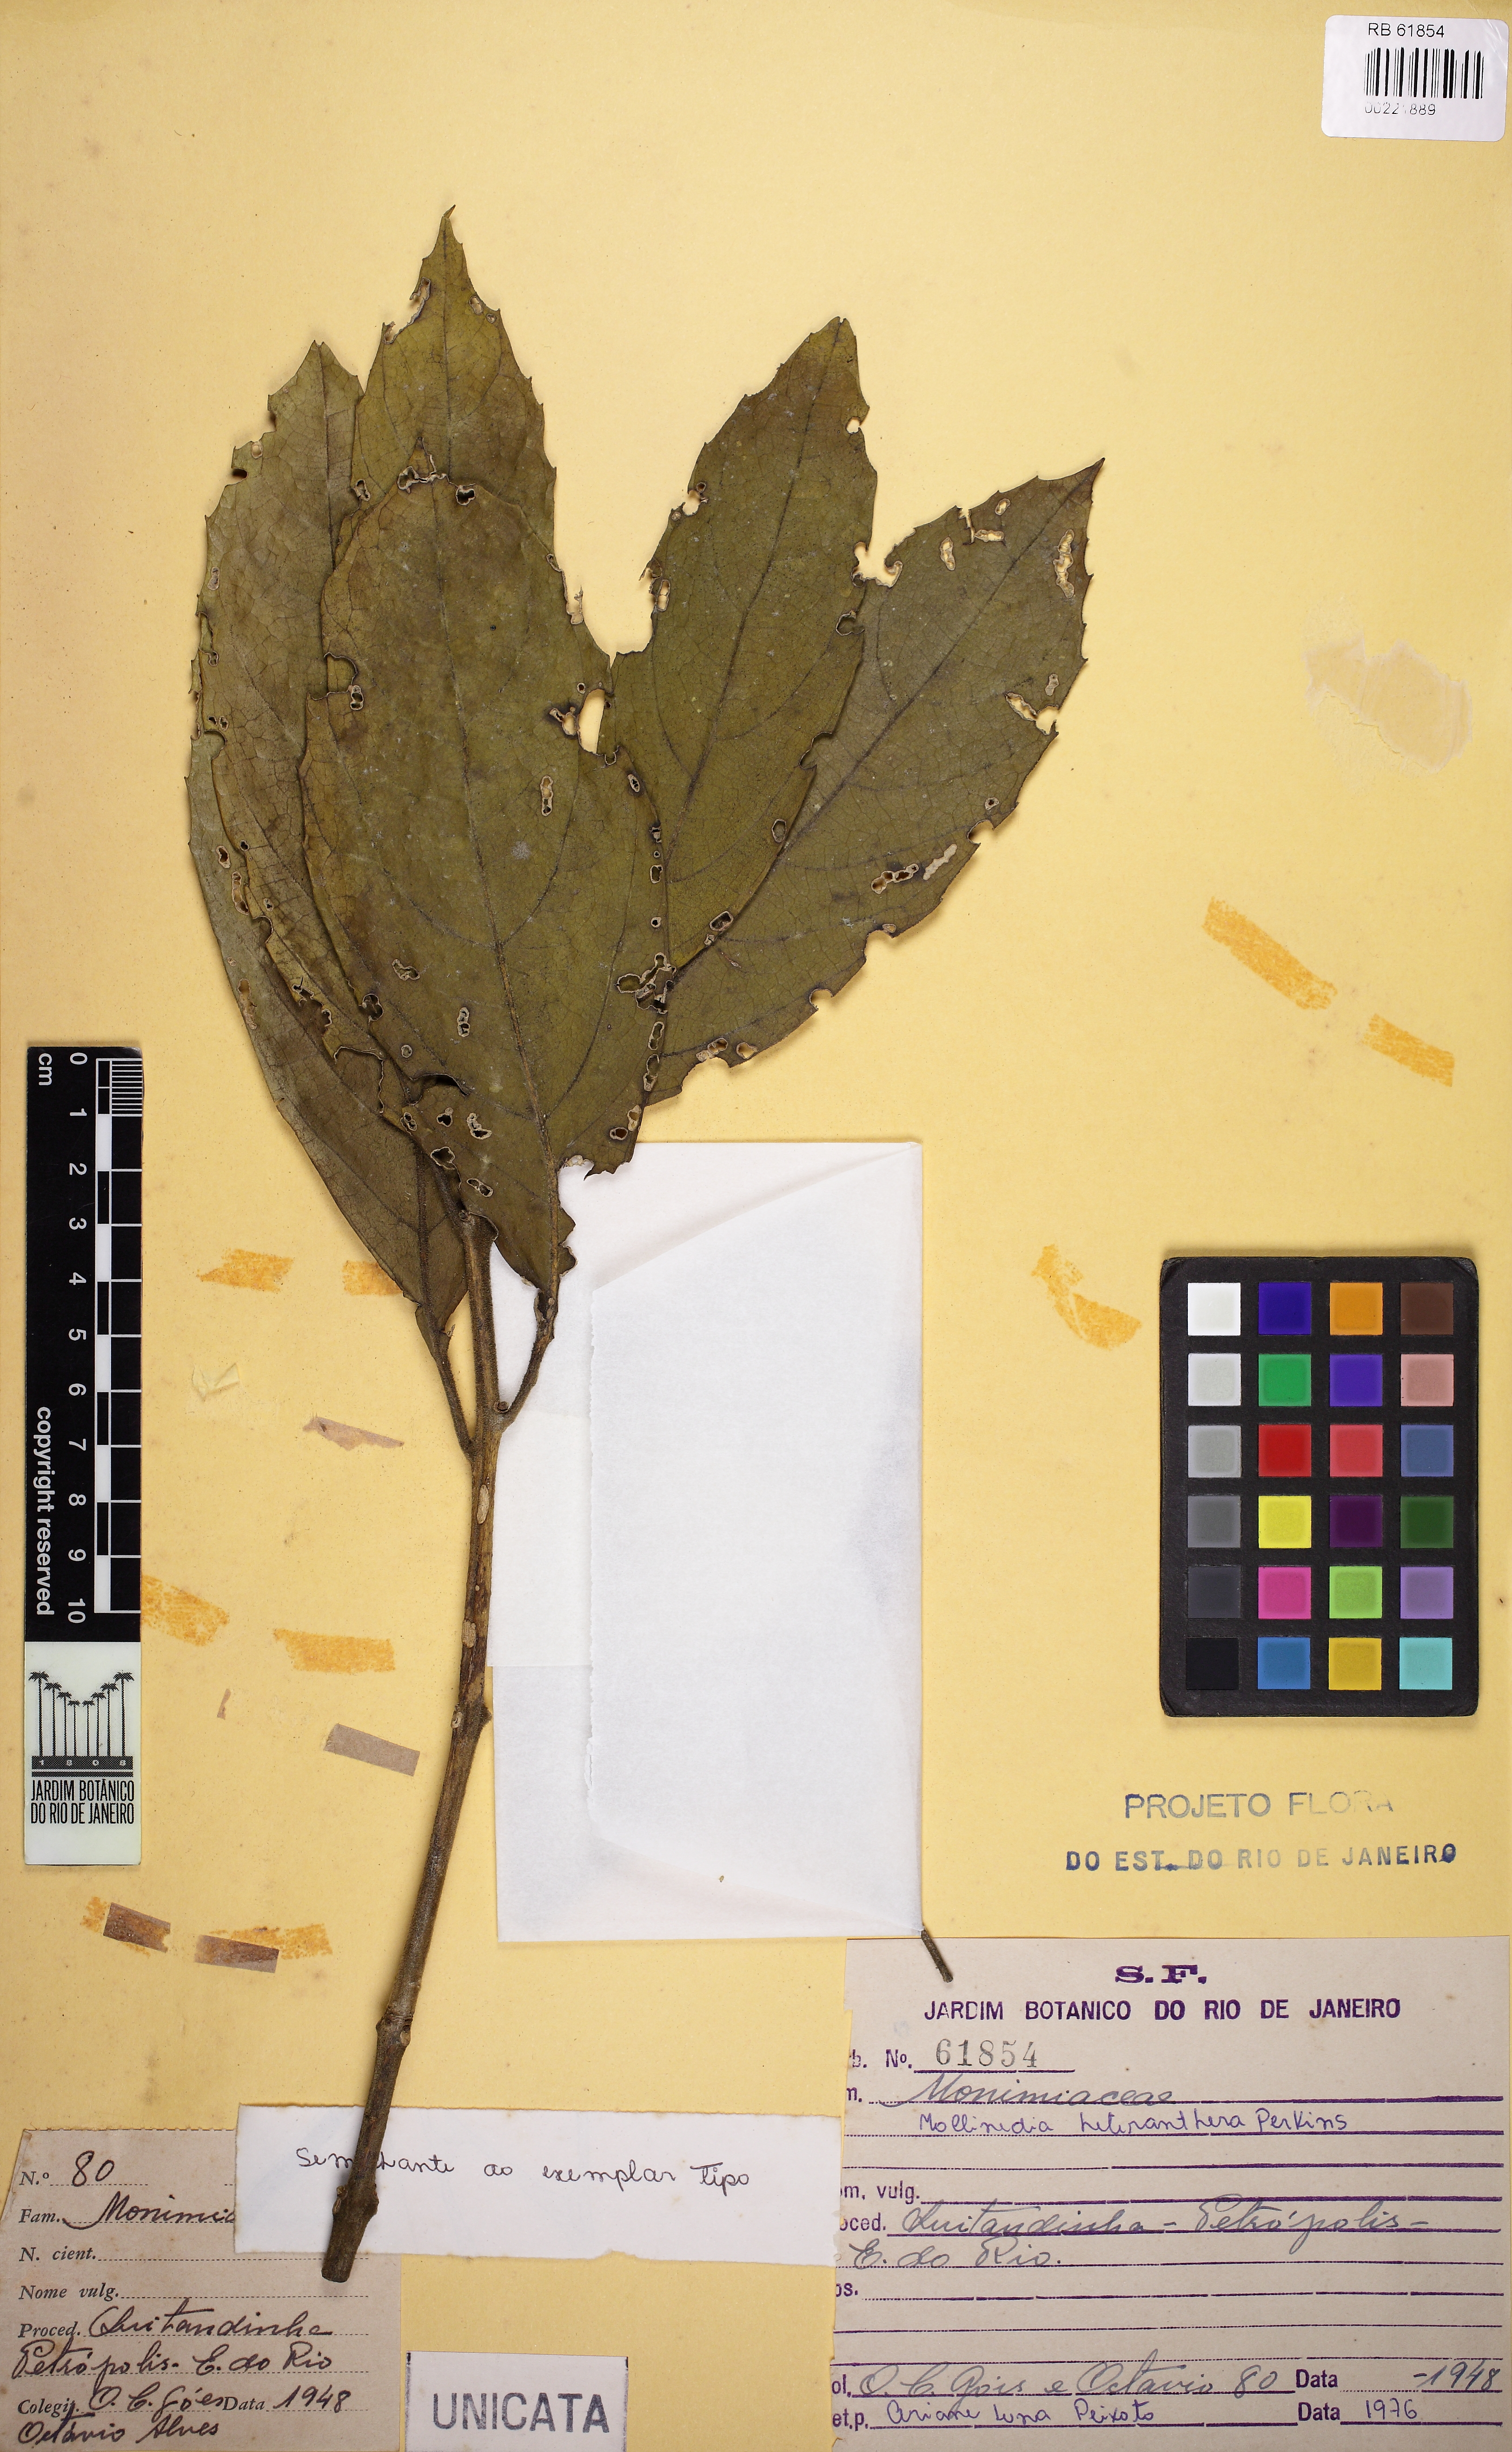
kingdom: Plantae
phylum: Tracheophyta
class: Magnoliopsida
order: Laurales
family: Monimiaceae
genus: Mollinedia
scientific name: Mollinedia heteranthera
